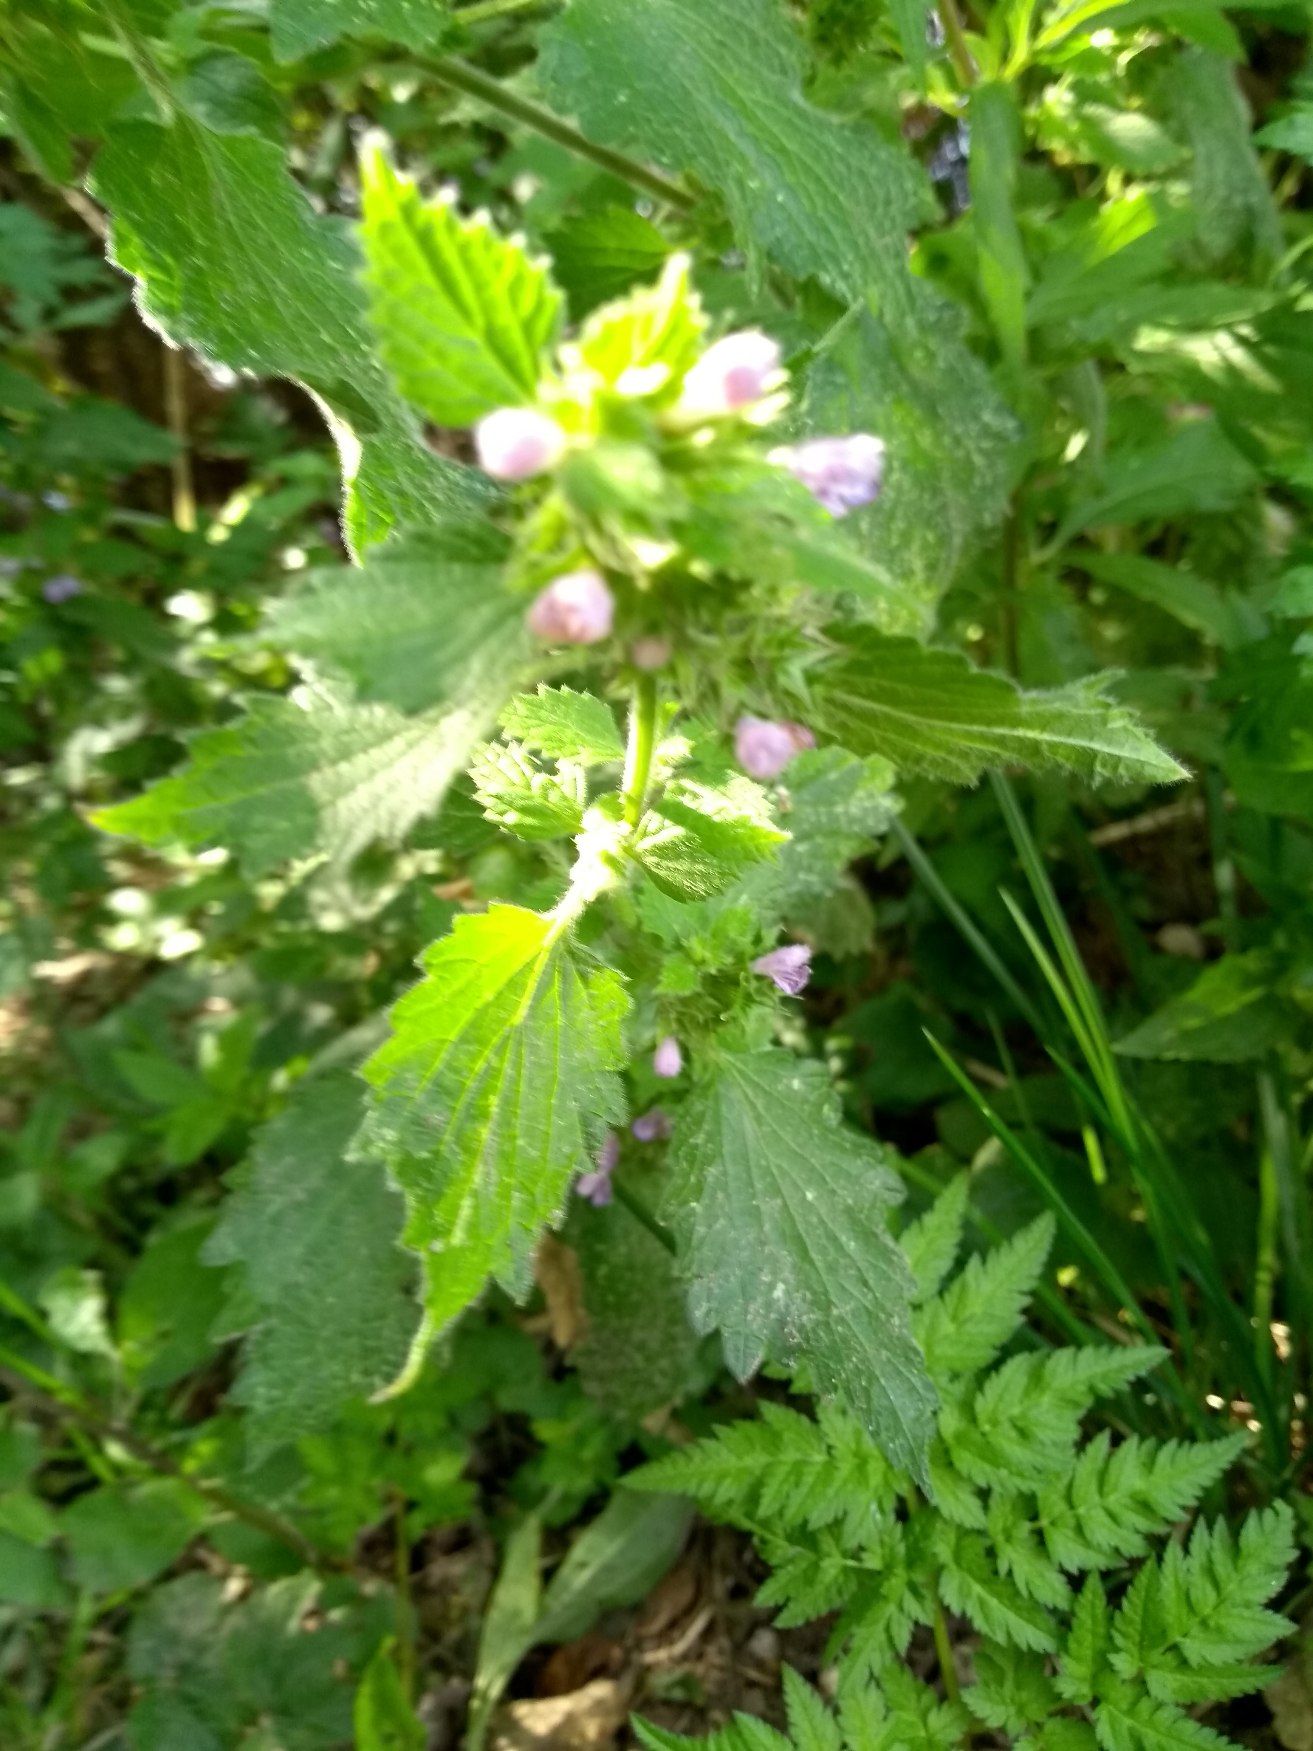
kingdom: Plantae
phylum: Tracheophyta
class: Magnoliopsida
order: Lamiales
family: Lamiaceae
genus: Ballota
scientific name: Ballota nigra
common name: Tandbæger
